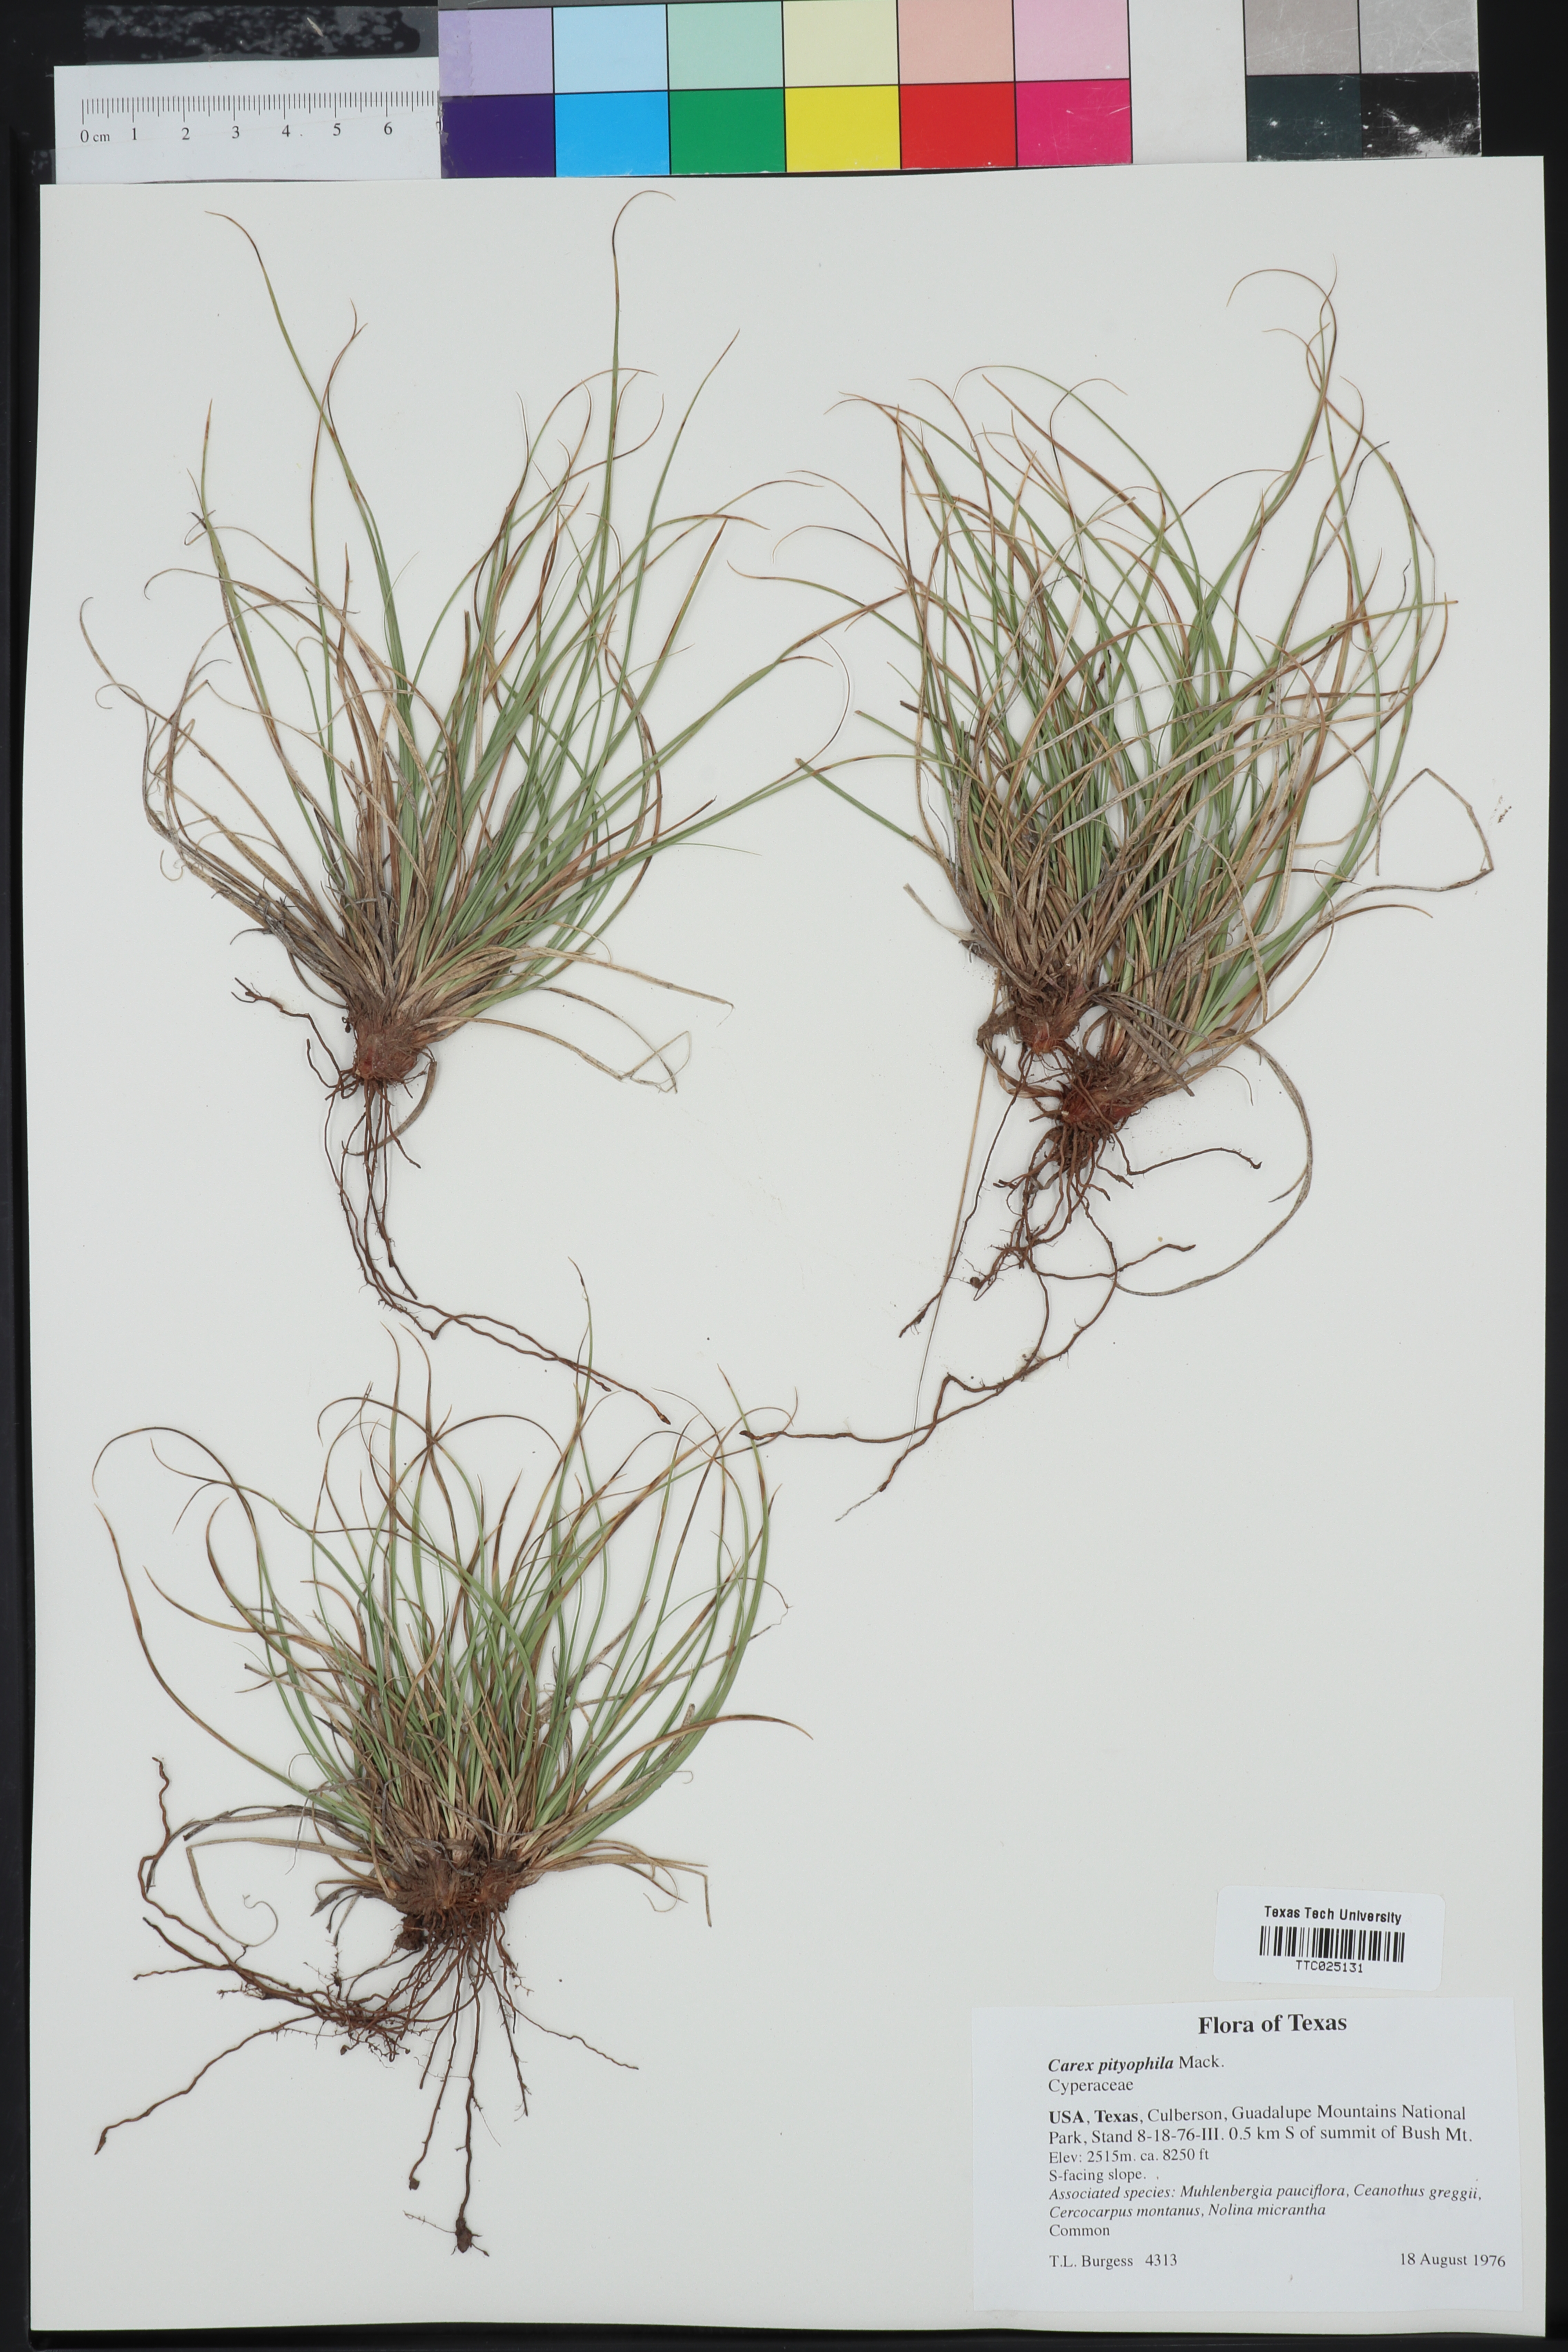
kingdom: Plantae
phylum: Tracheophyta
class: Liliopsida
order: Poales
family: Cyperaceae
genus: Carex
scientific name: Carex pityophila
